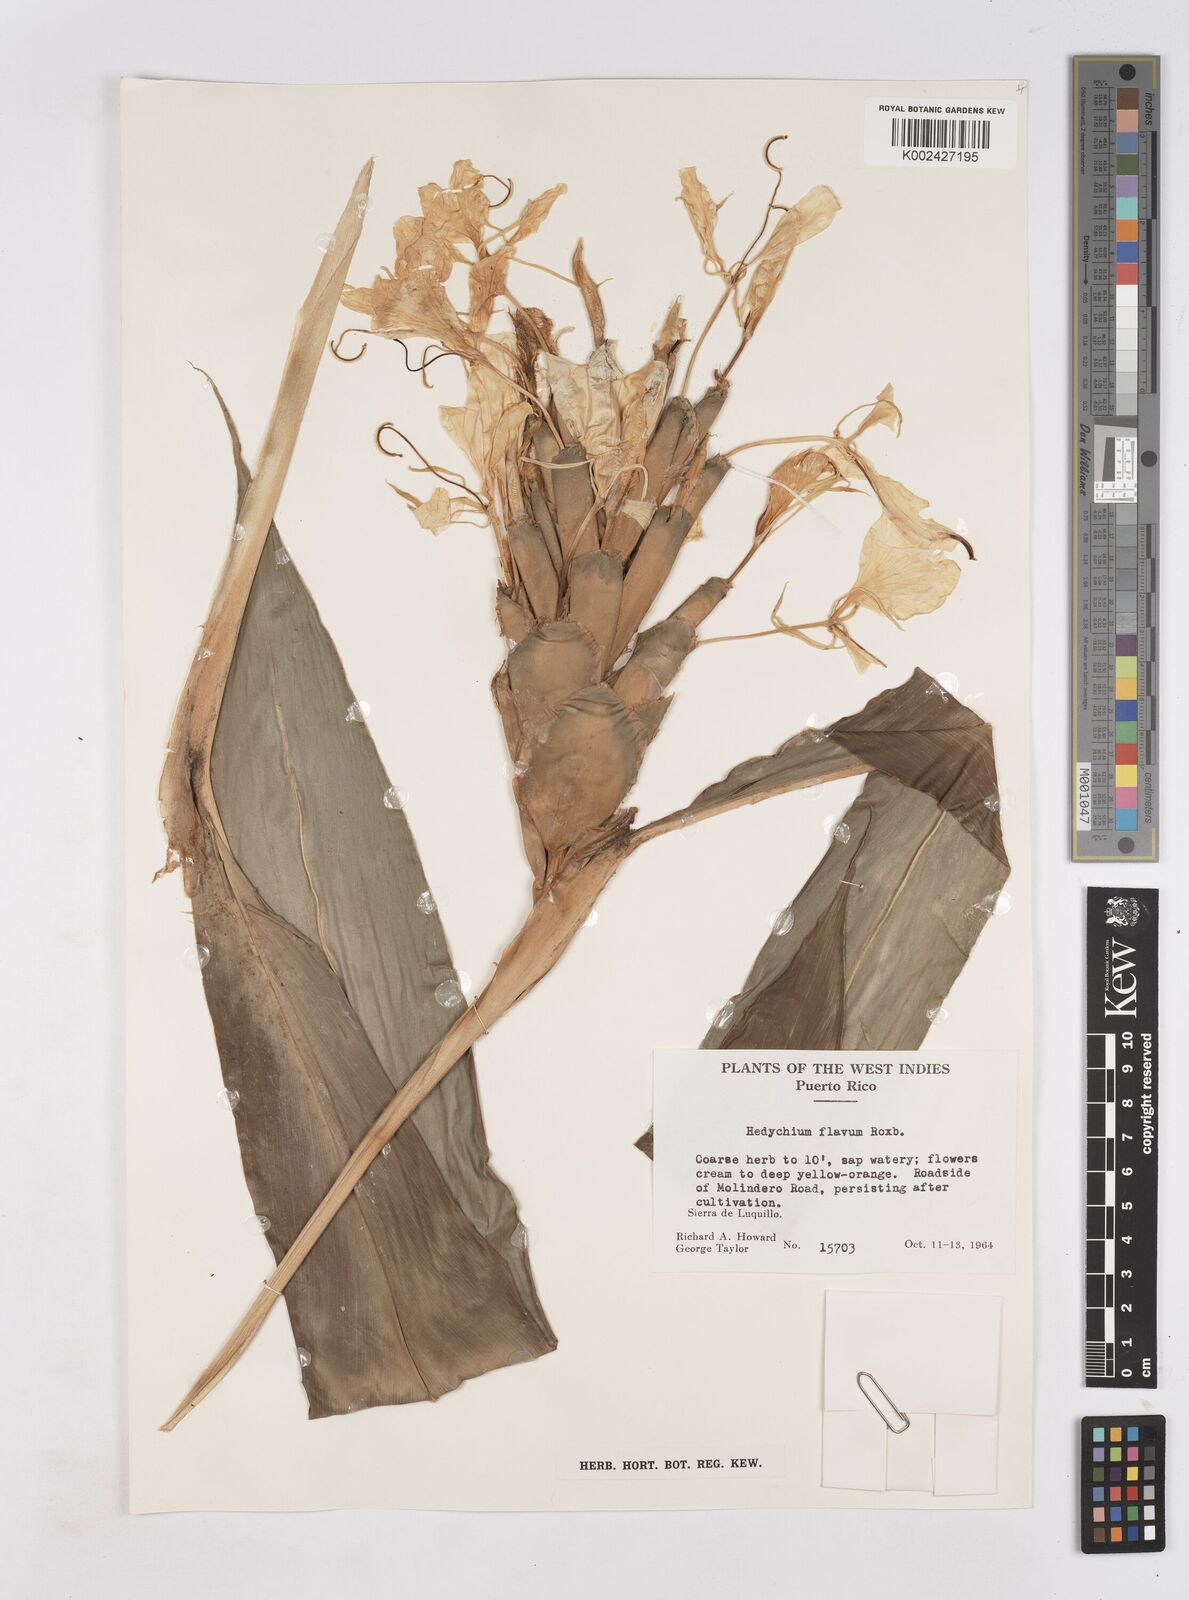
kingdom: Plantae
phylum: Tracheophyta
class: Liliopsida
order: Zingiberales
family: Zingiberaceae
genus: Hedychium
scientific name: Hedychium flavum
